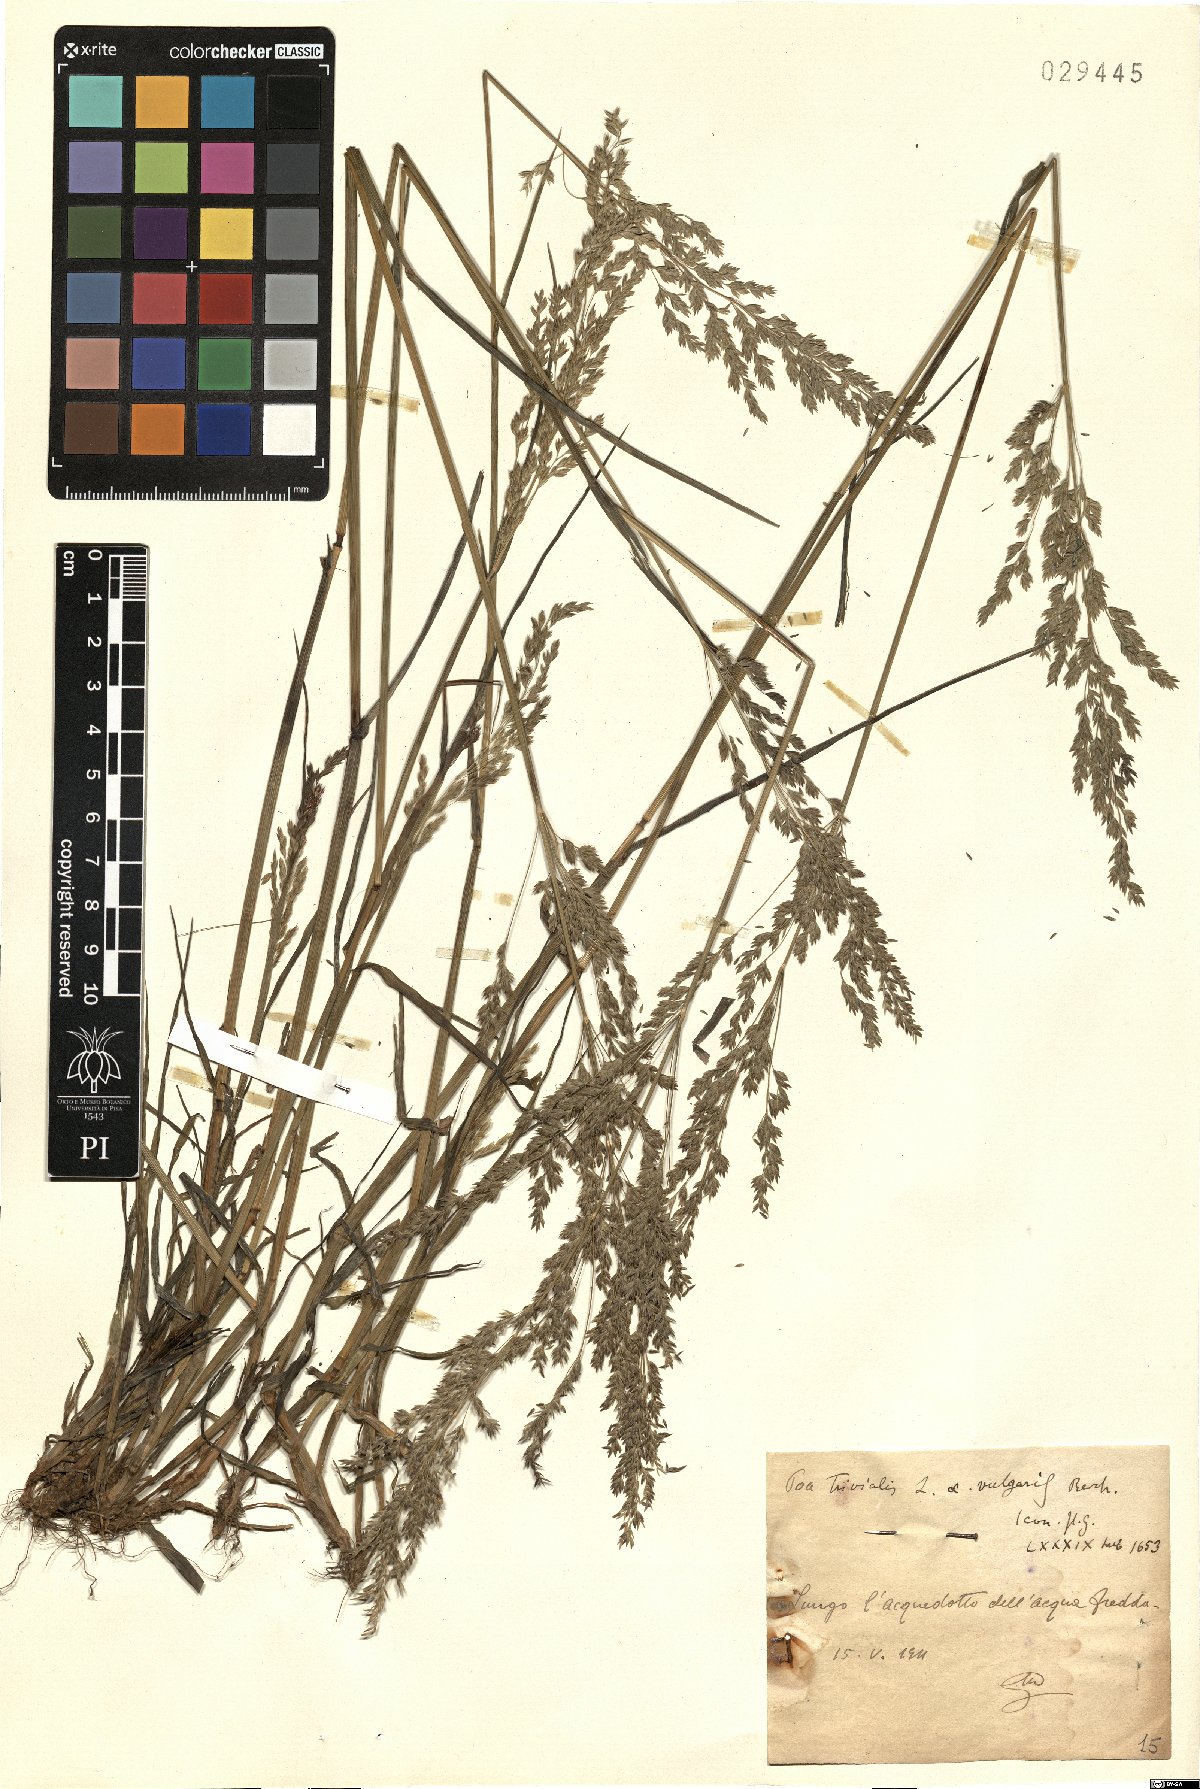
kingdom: Plantae
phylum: Tracheophyta
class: Liliopsida
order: Poales
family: Poaceae
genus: Poa
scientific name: Poa trivialis
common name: Rough bluegrass
